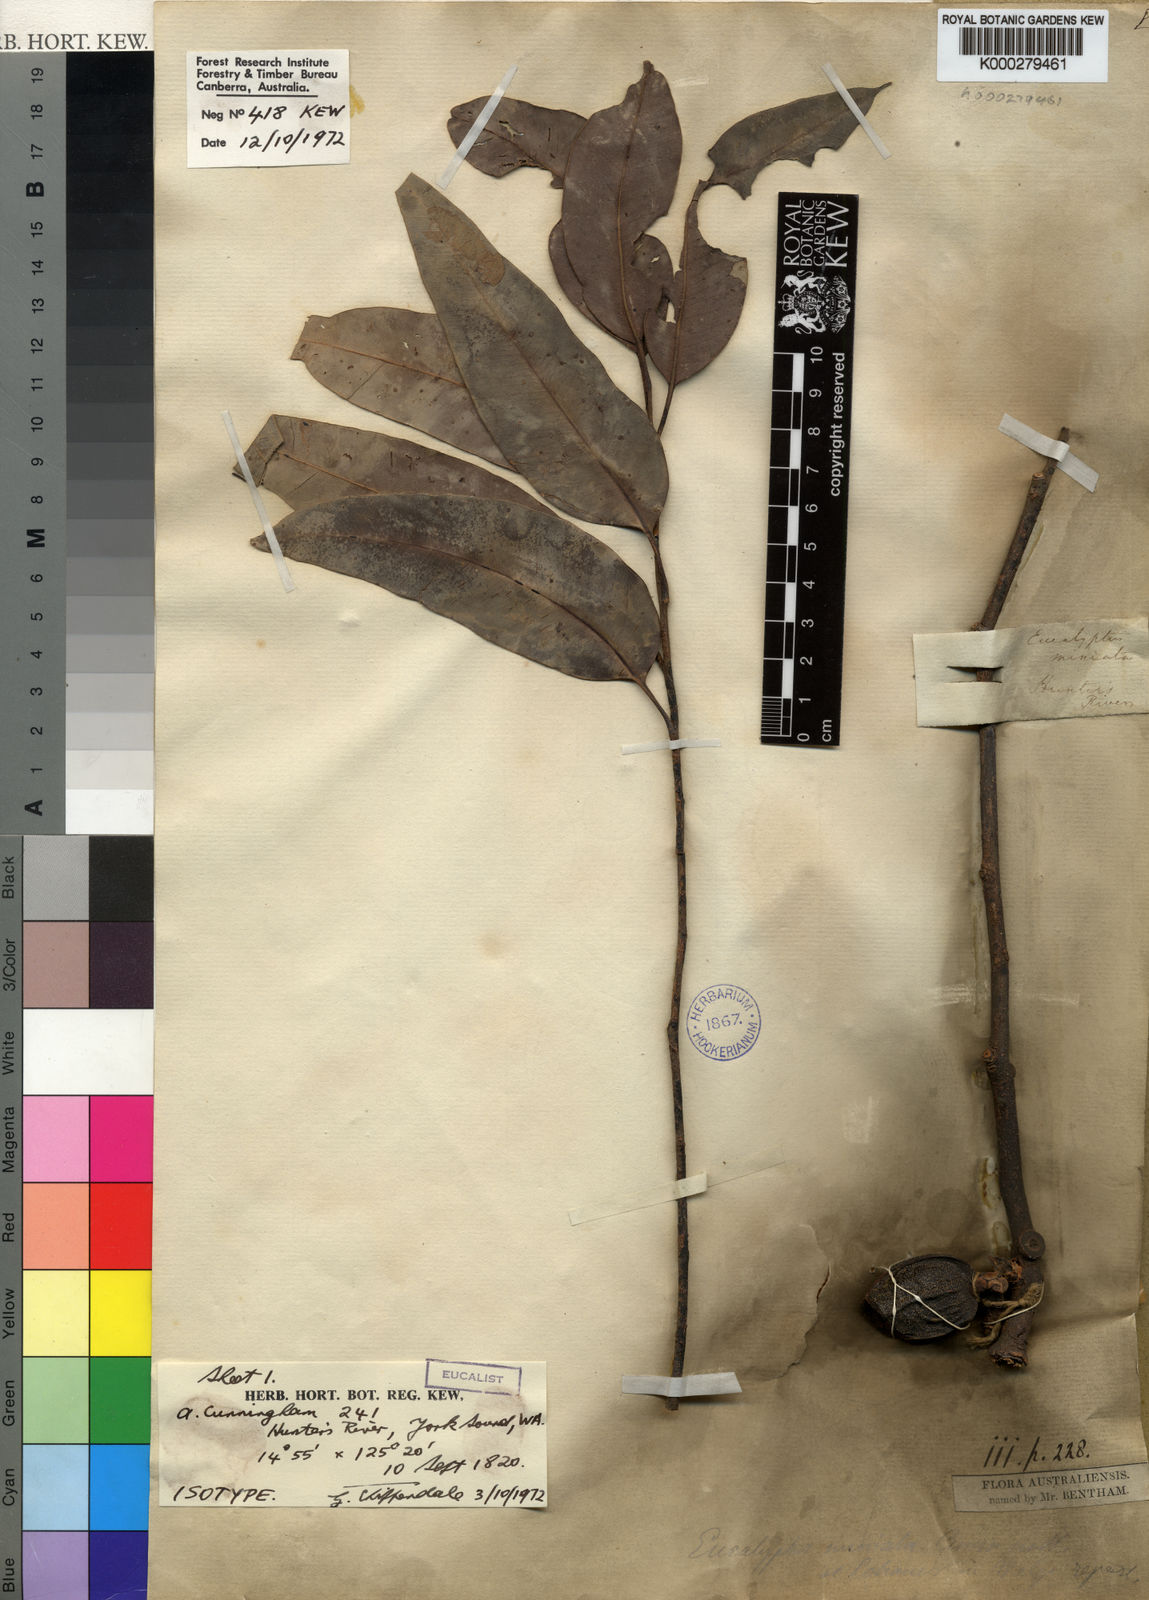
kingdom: Plantae
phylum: Tracheophyta
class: Magnoliopsida
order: Myrtales
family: Myrtaceae
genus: Eucalyptus
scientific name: Eucalyptus miniata
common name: Darwin-woollybutt
